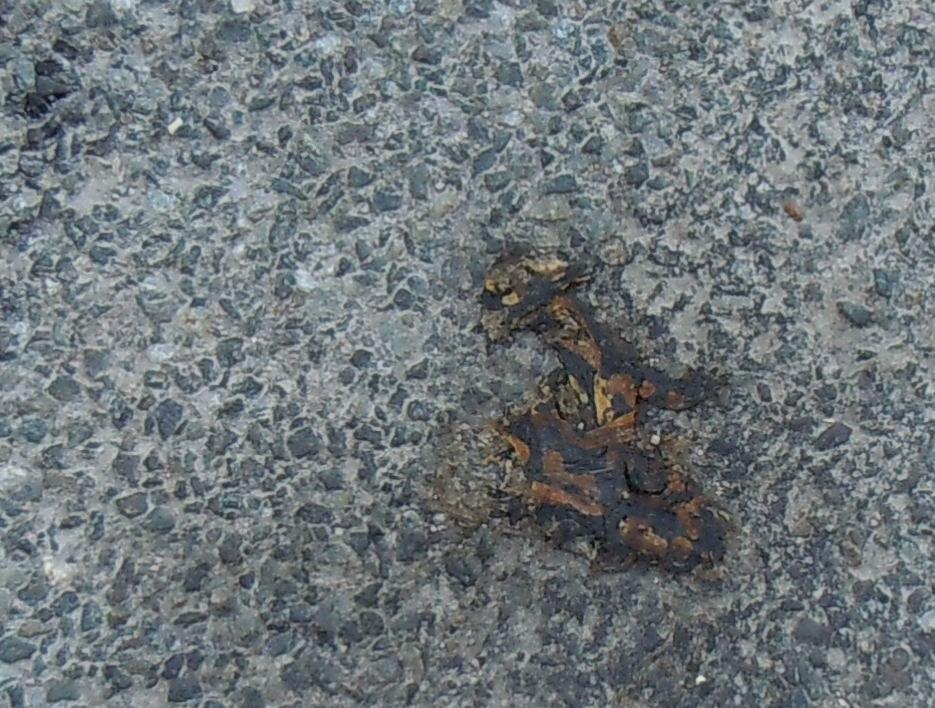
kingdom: Animalia
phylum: Chordata
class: Amphibia
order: Caudata
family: Salamandridae
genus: Salamandra
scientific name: Salamandra salamandra
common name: Fire salamander
